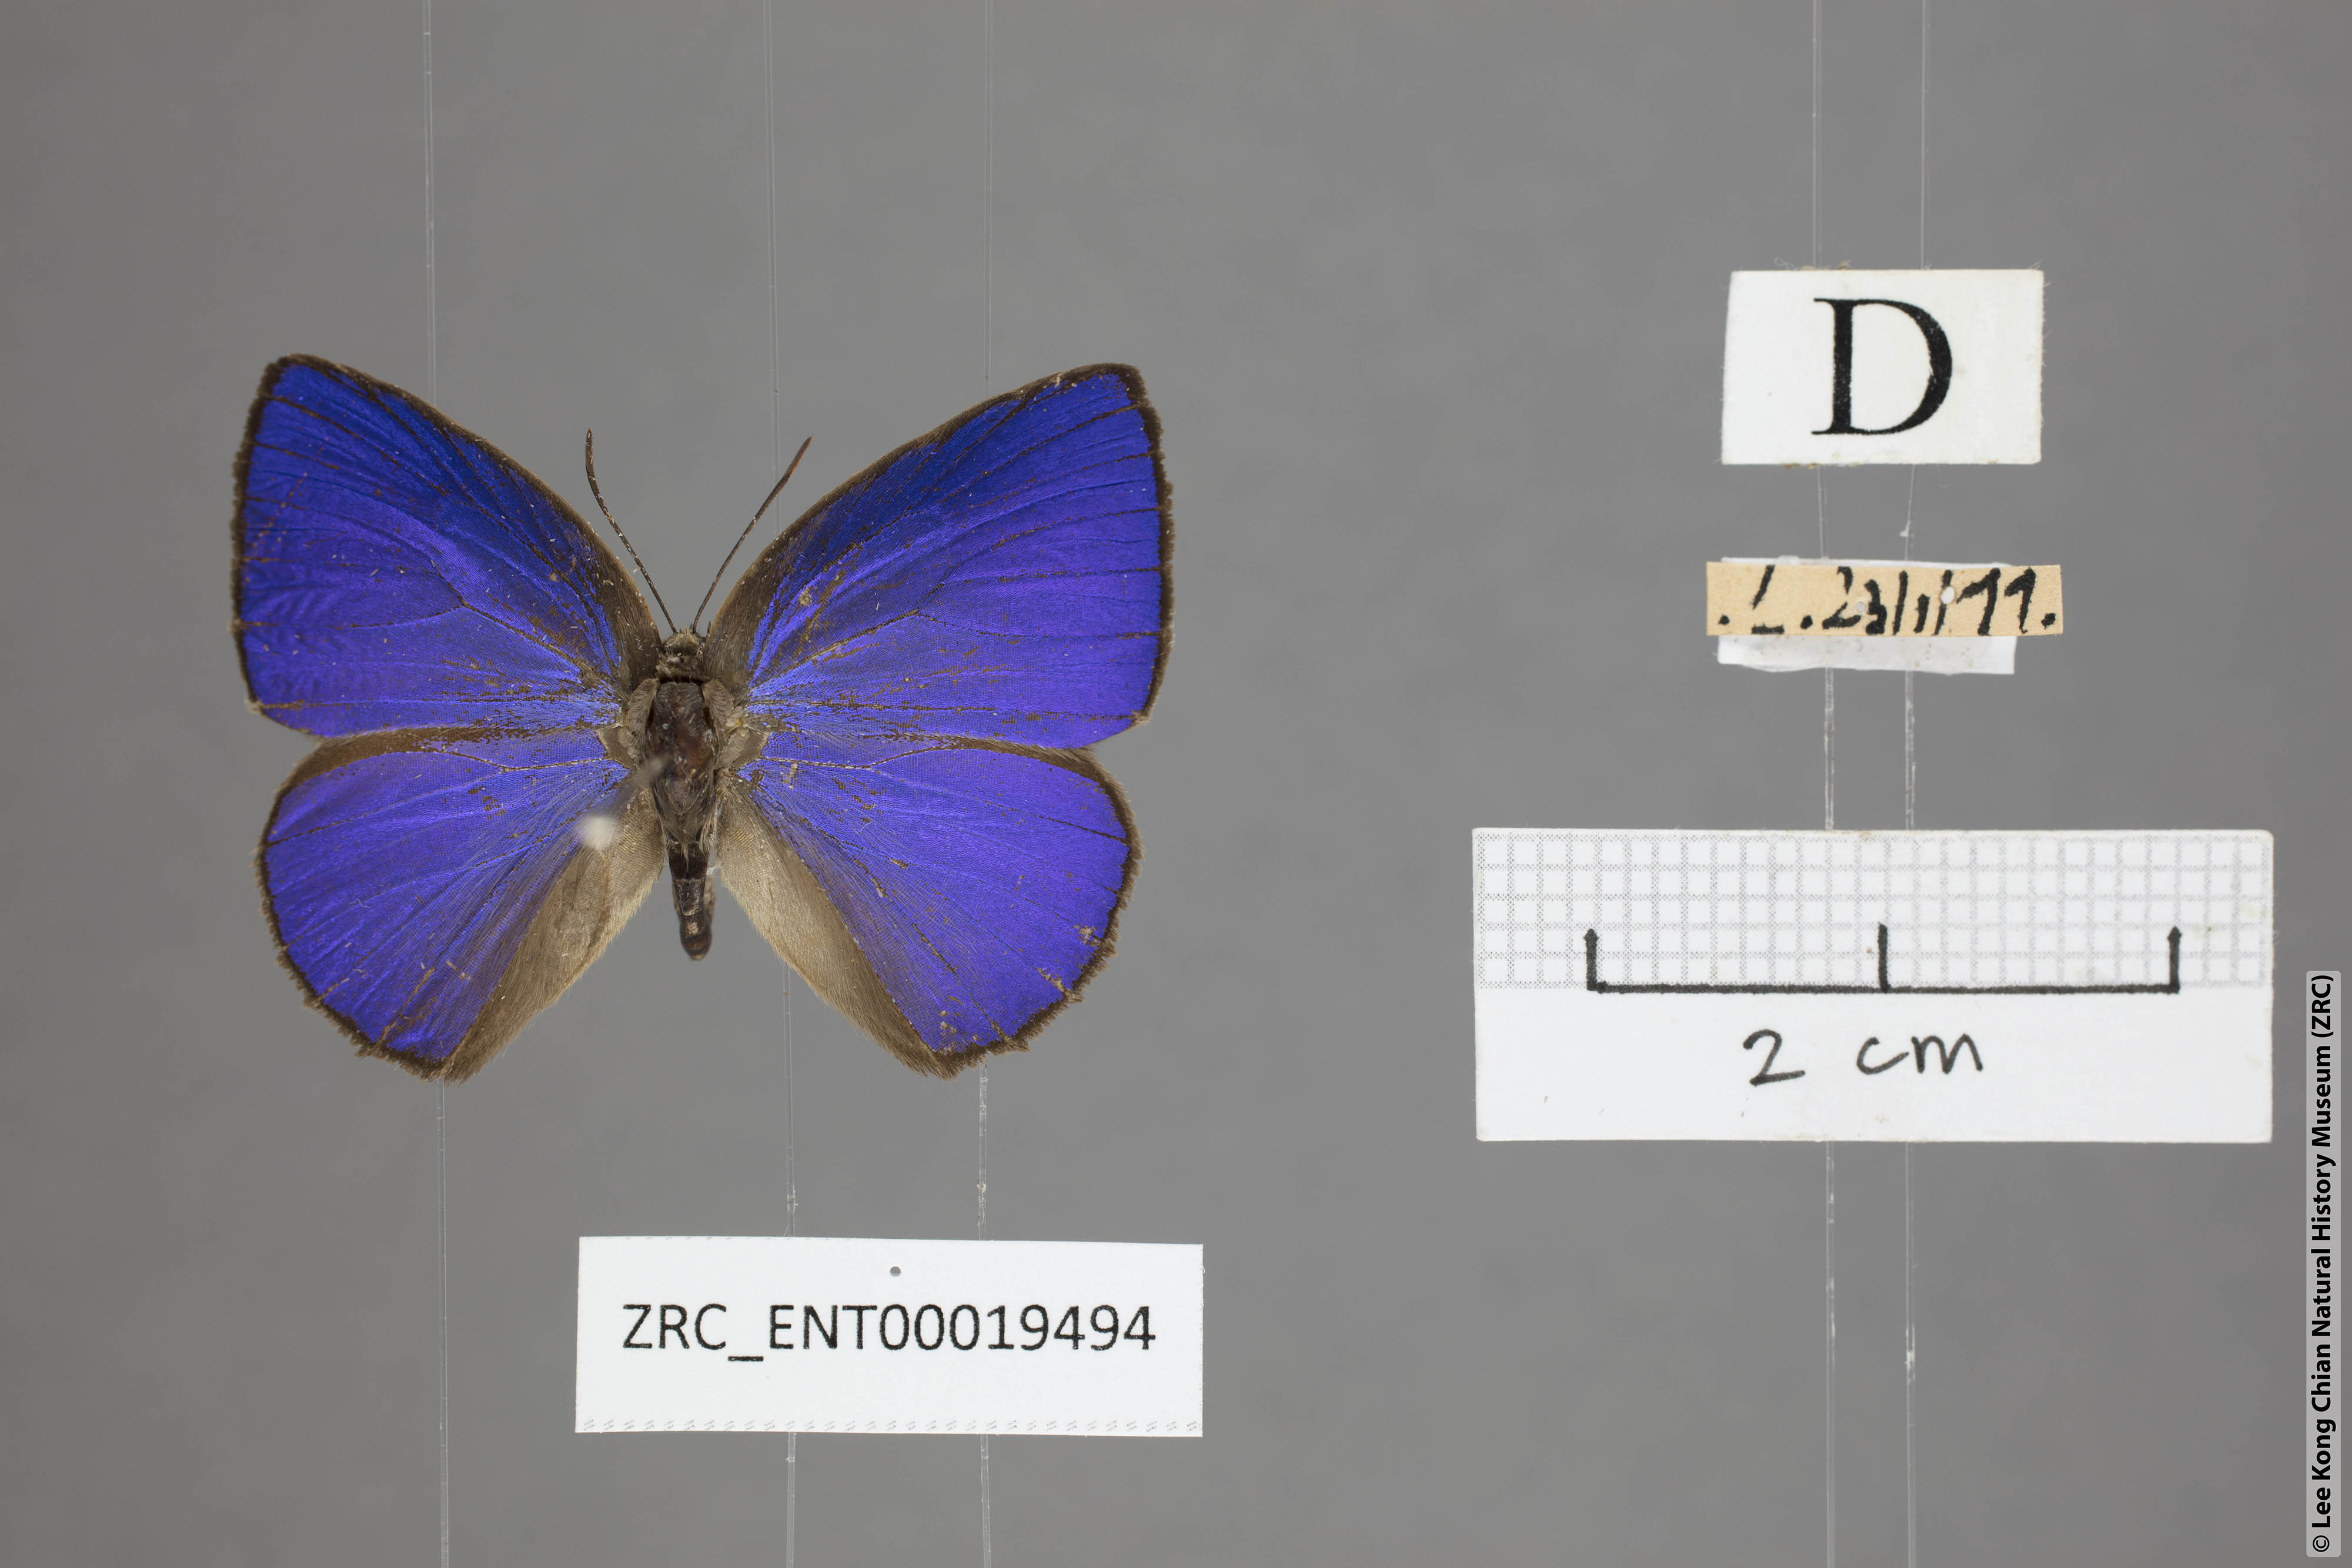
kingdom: Animalia
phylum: Arthropoda
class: Insecta
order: Lepidoptera
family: Lycaenidae
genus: Arhopala
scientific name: Arhopala fulla
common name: Spotless oakblue
